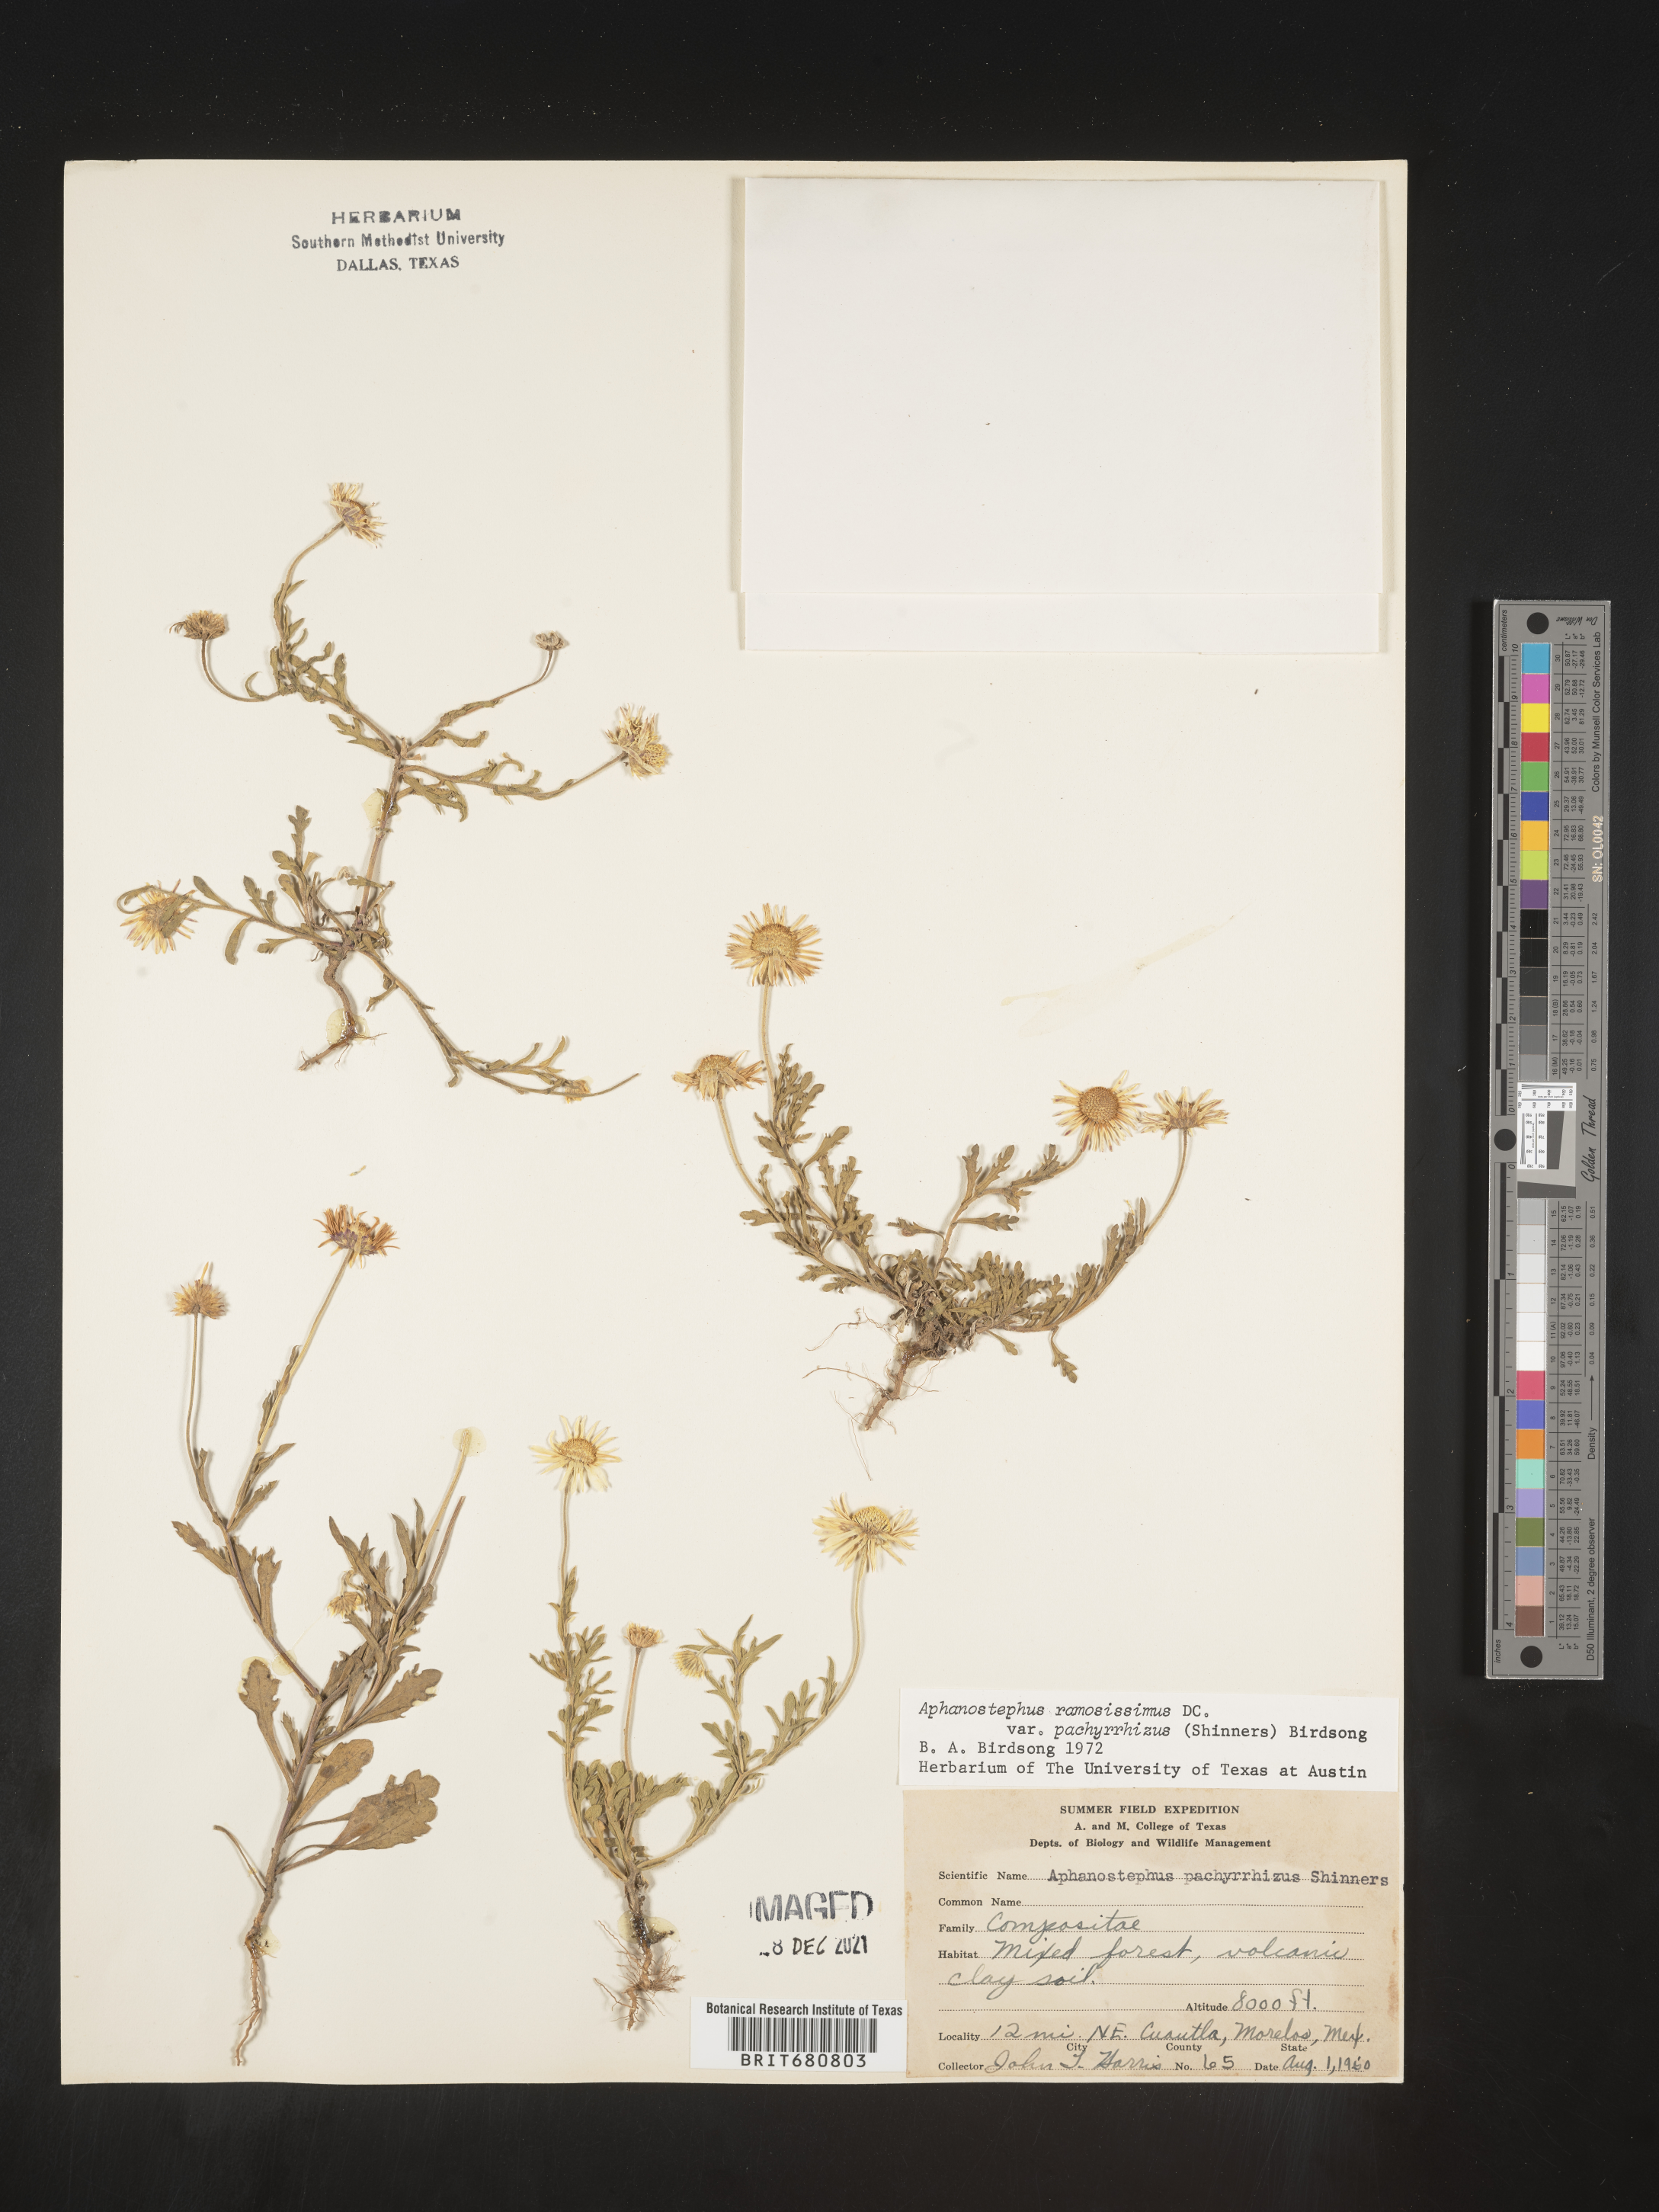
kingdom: Plantae
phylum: Tracheophyta
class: Magnoliopsida
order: Asterales
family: Asteraceae
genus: Aphanostephus
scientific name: Aphanostephus ramosissimus
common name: Plains lazy daisy
